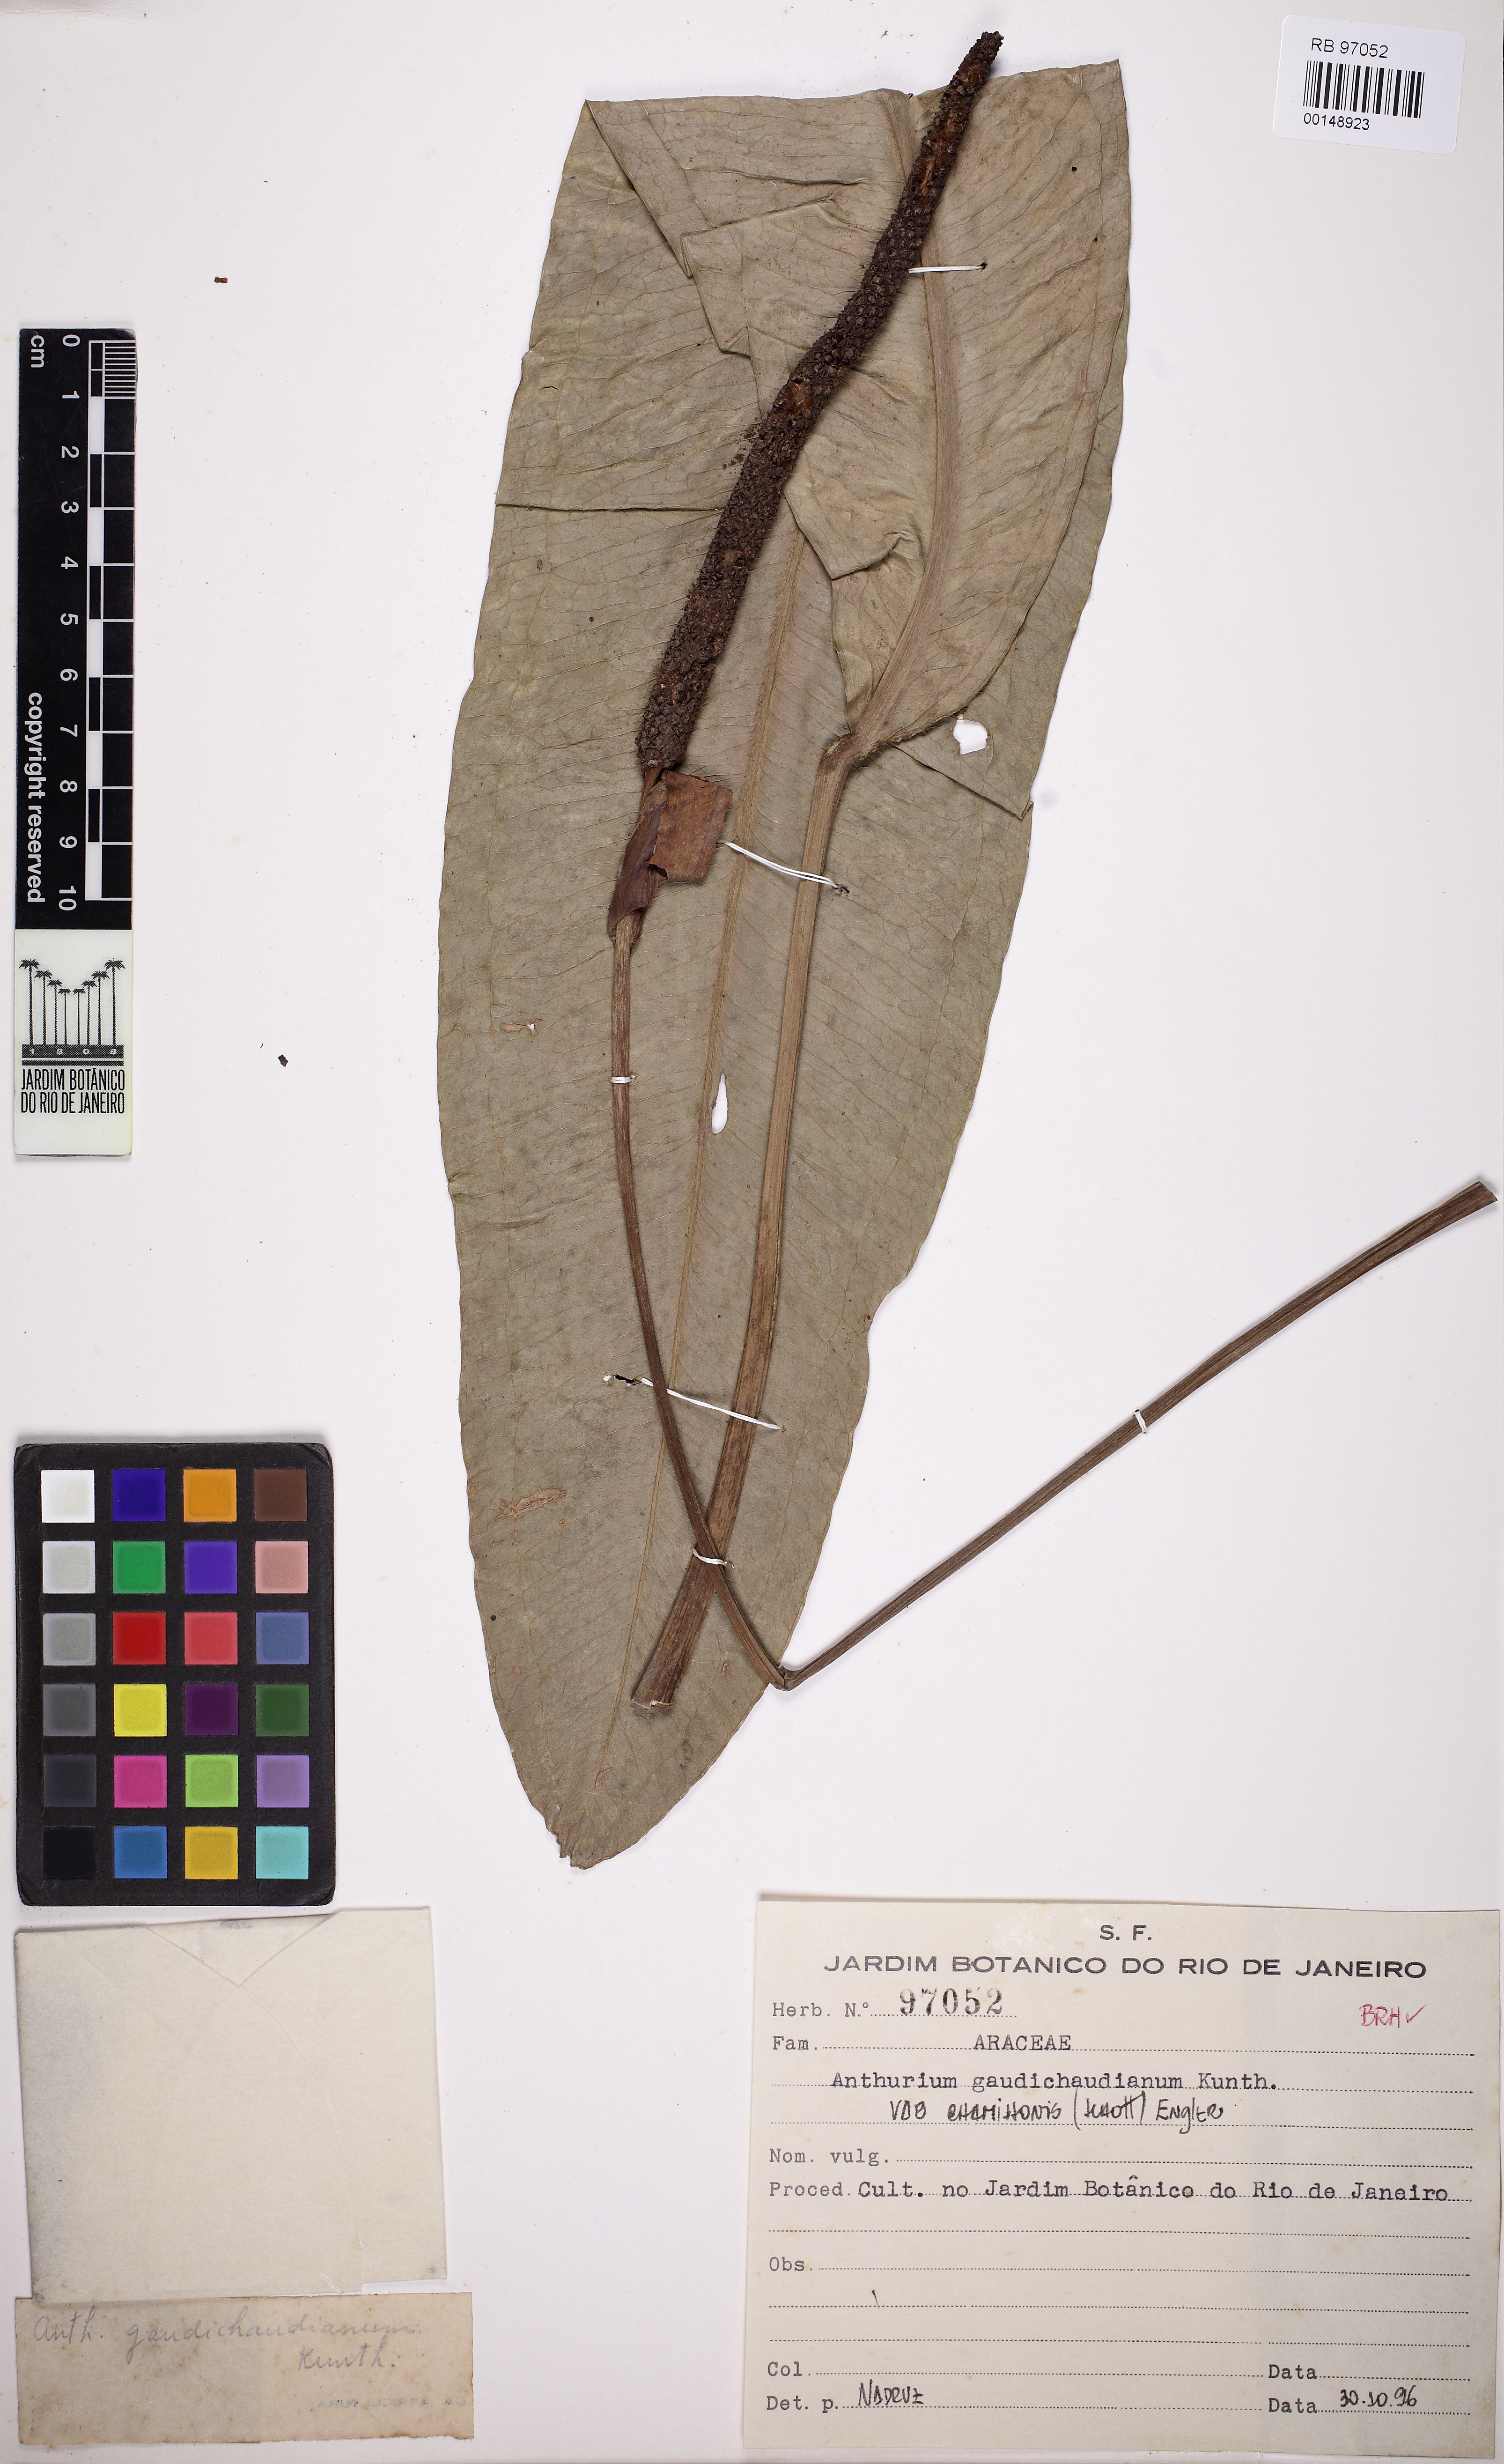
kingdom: Plantae
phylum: Tracheophyta
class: Liliopsida
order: Alismatales
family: Araceae
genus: Anthurium
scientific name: Anthurium gaudichaudianum
